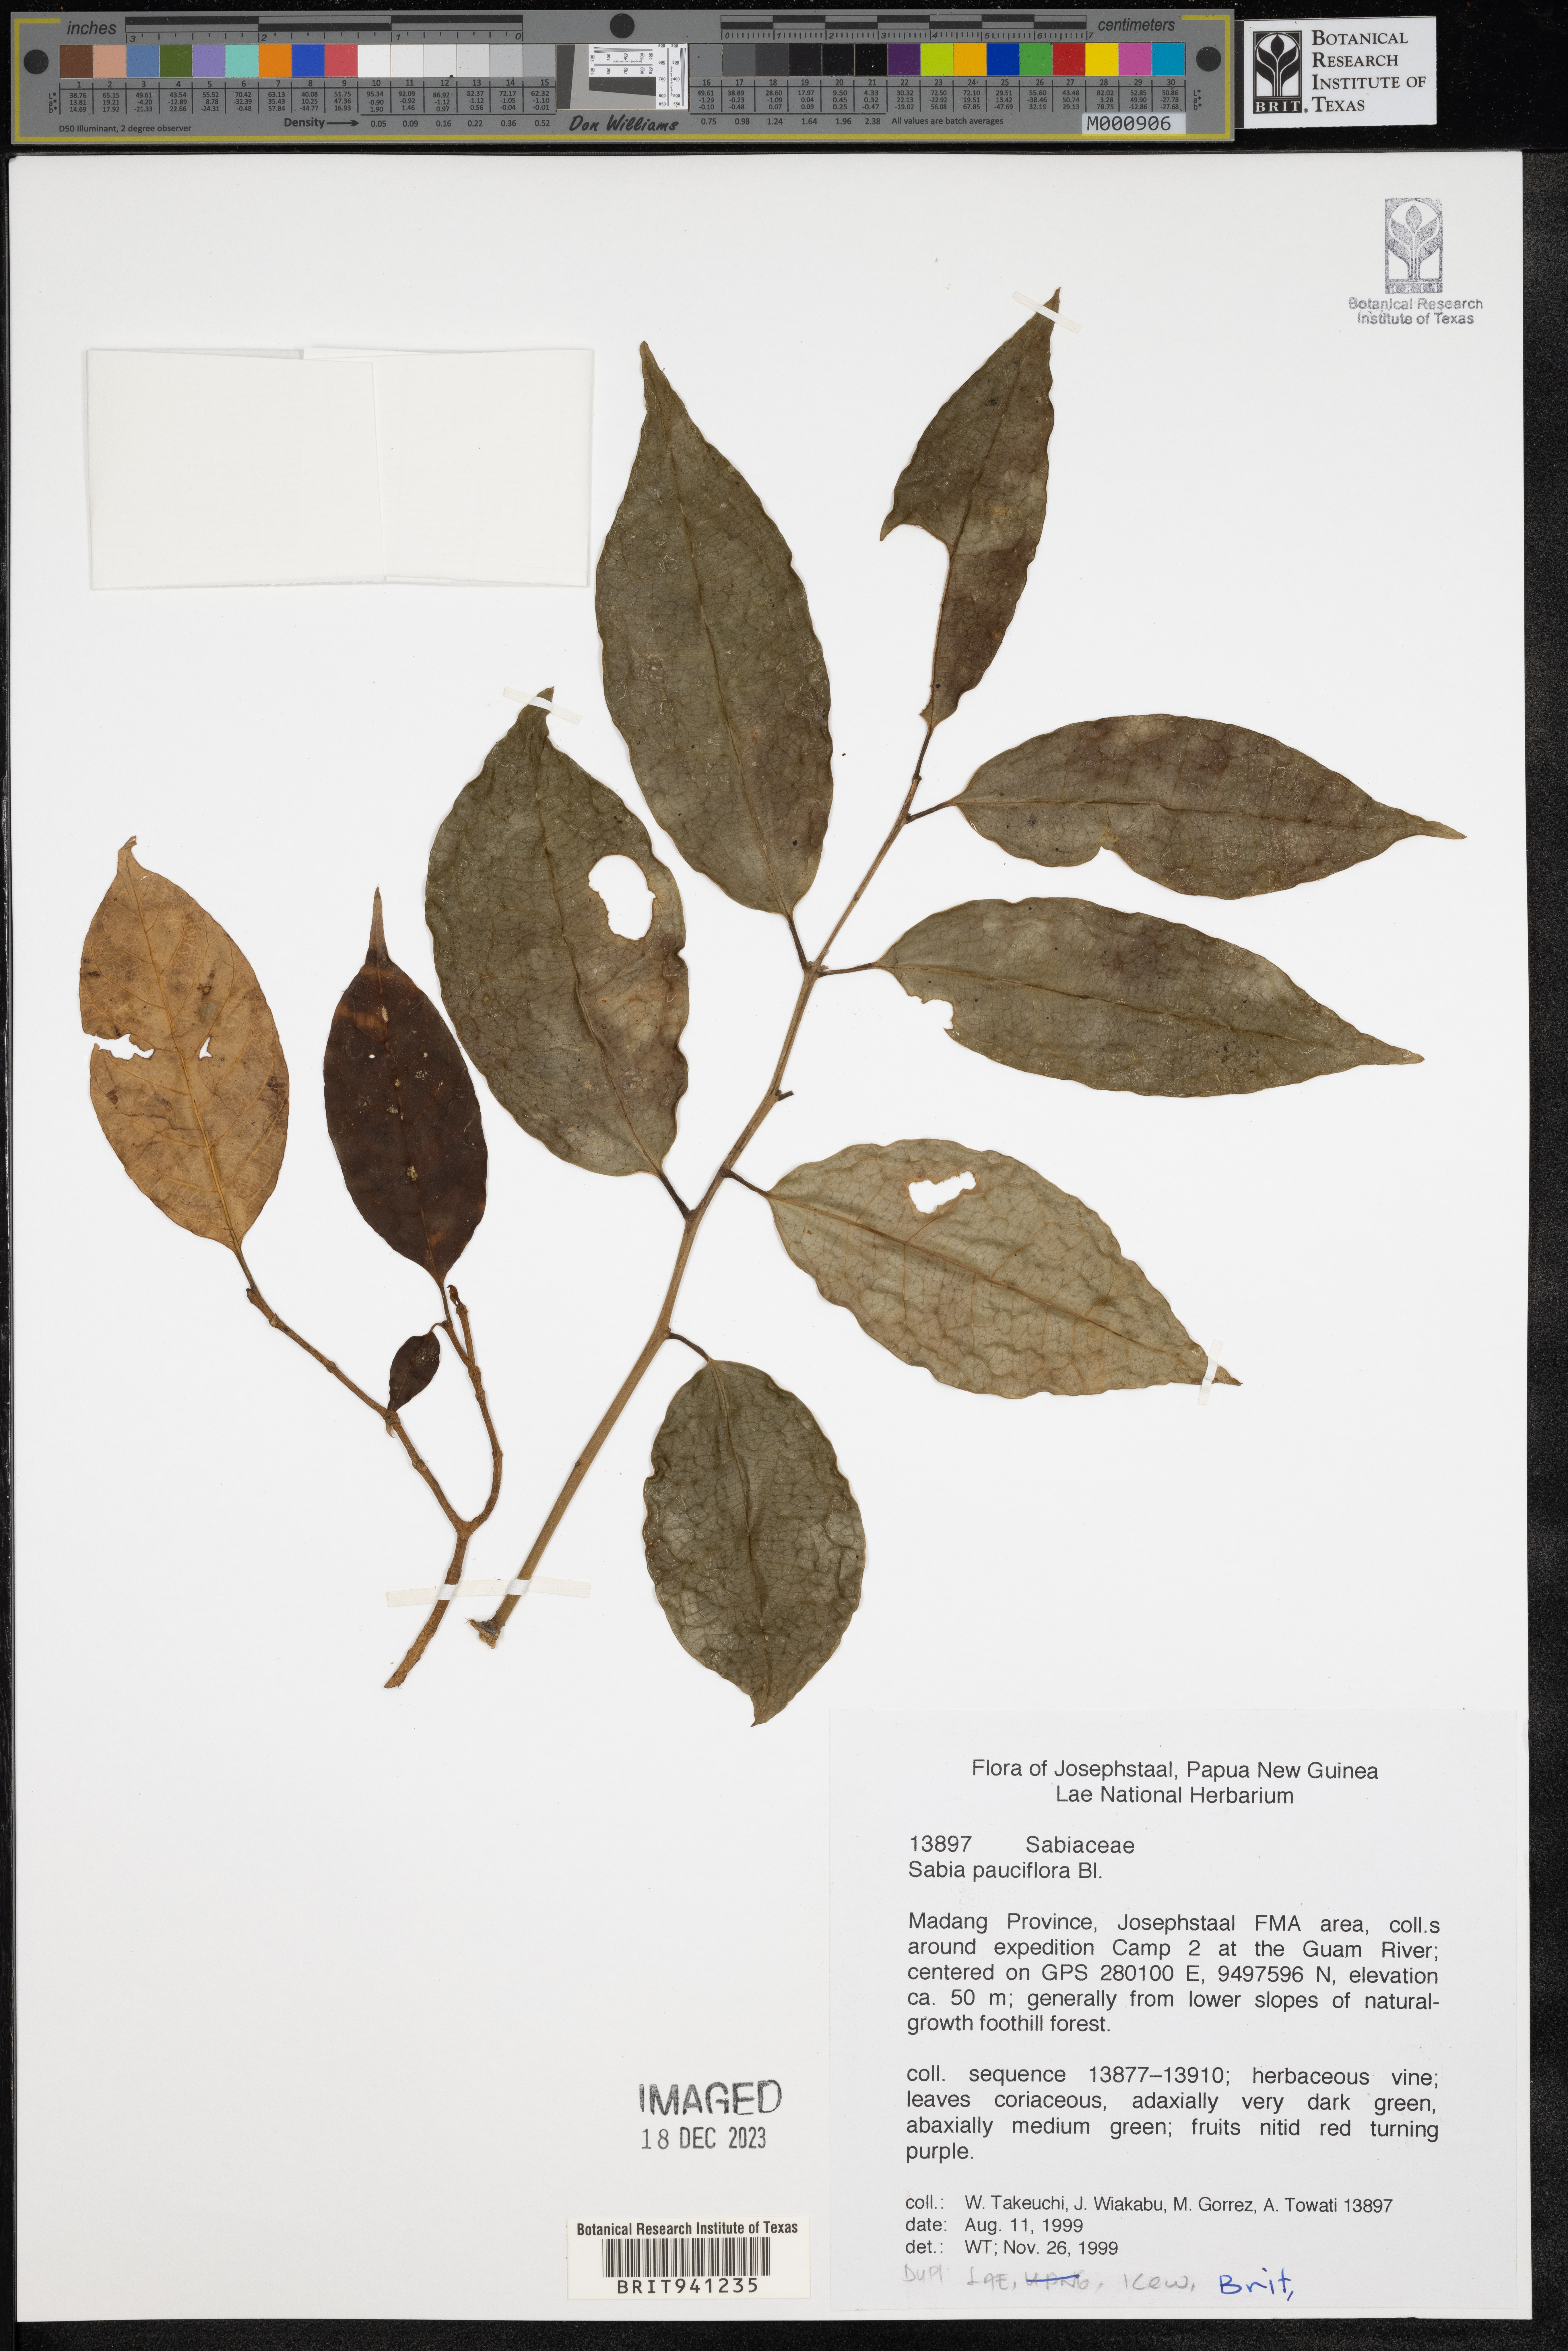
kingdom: Plantae
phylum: Tracheophyta
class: Magnoliopsida
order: Proteales
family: Sabiaceae
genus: Sabia
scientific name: Sabia
